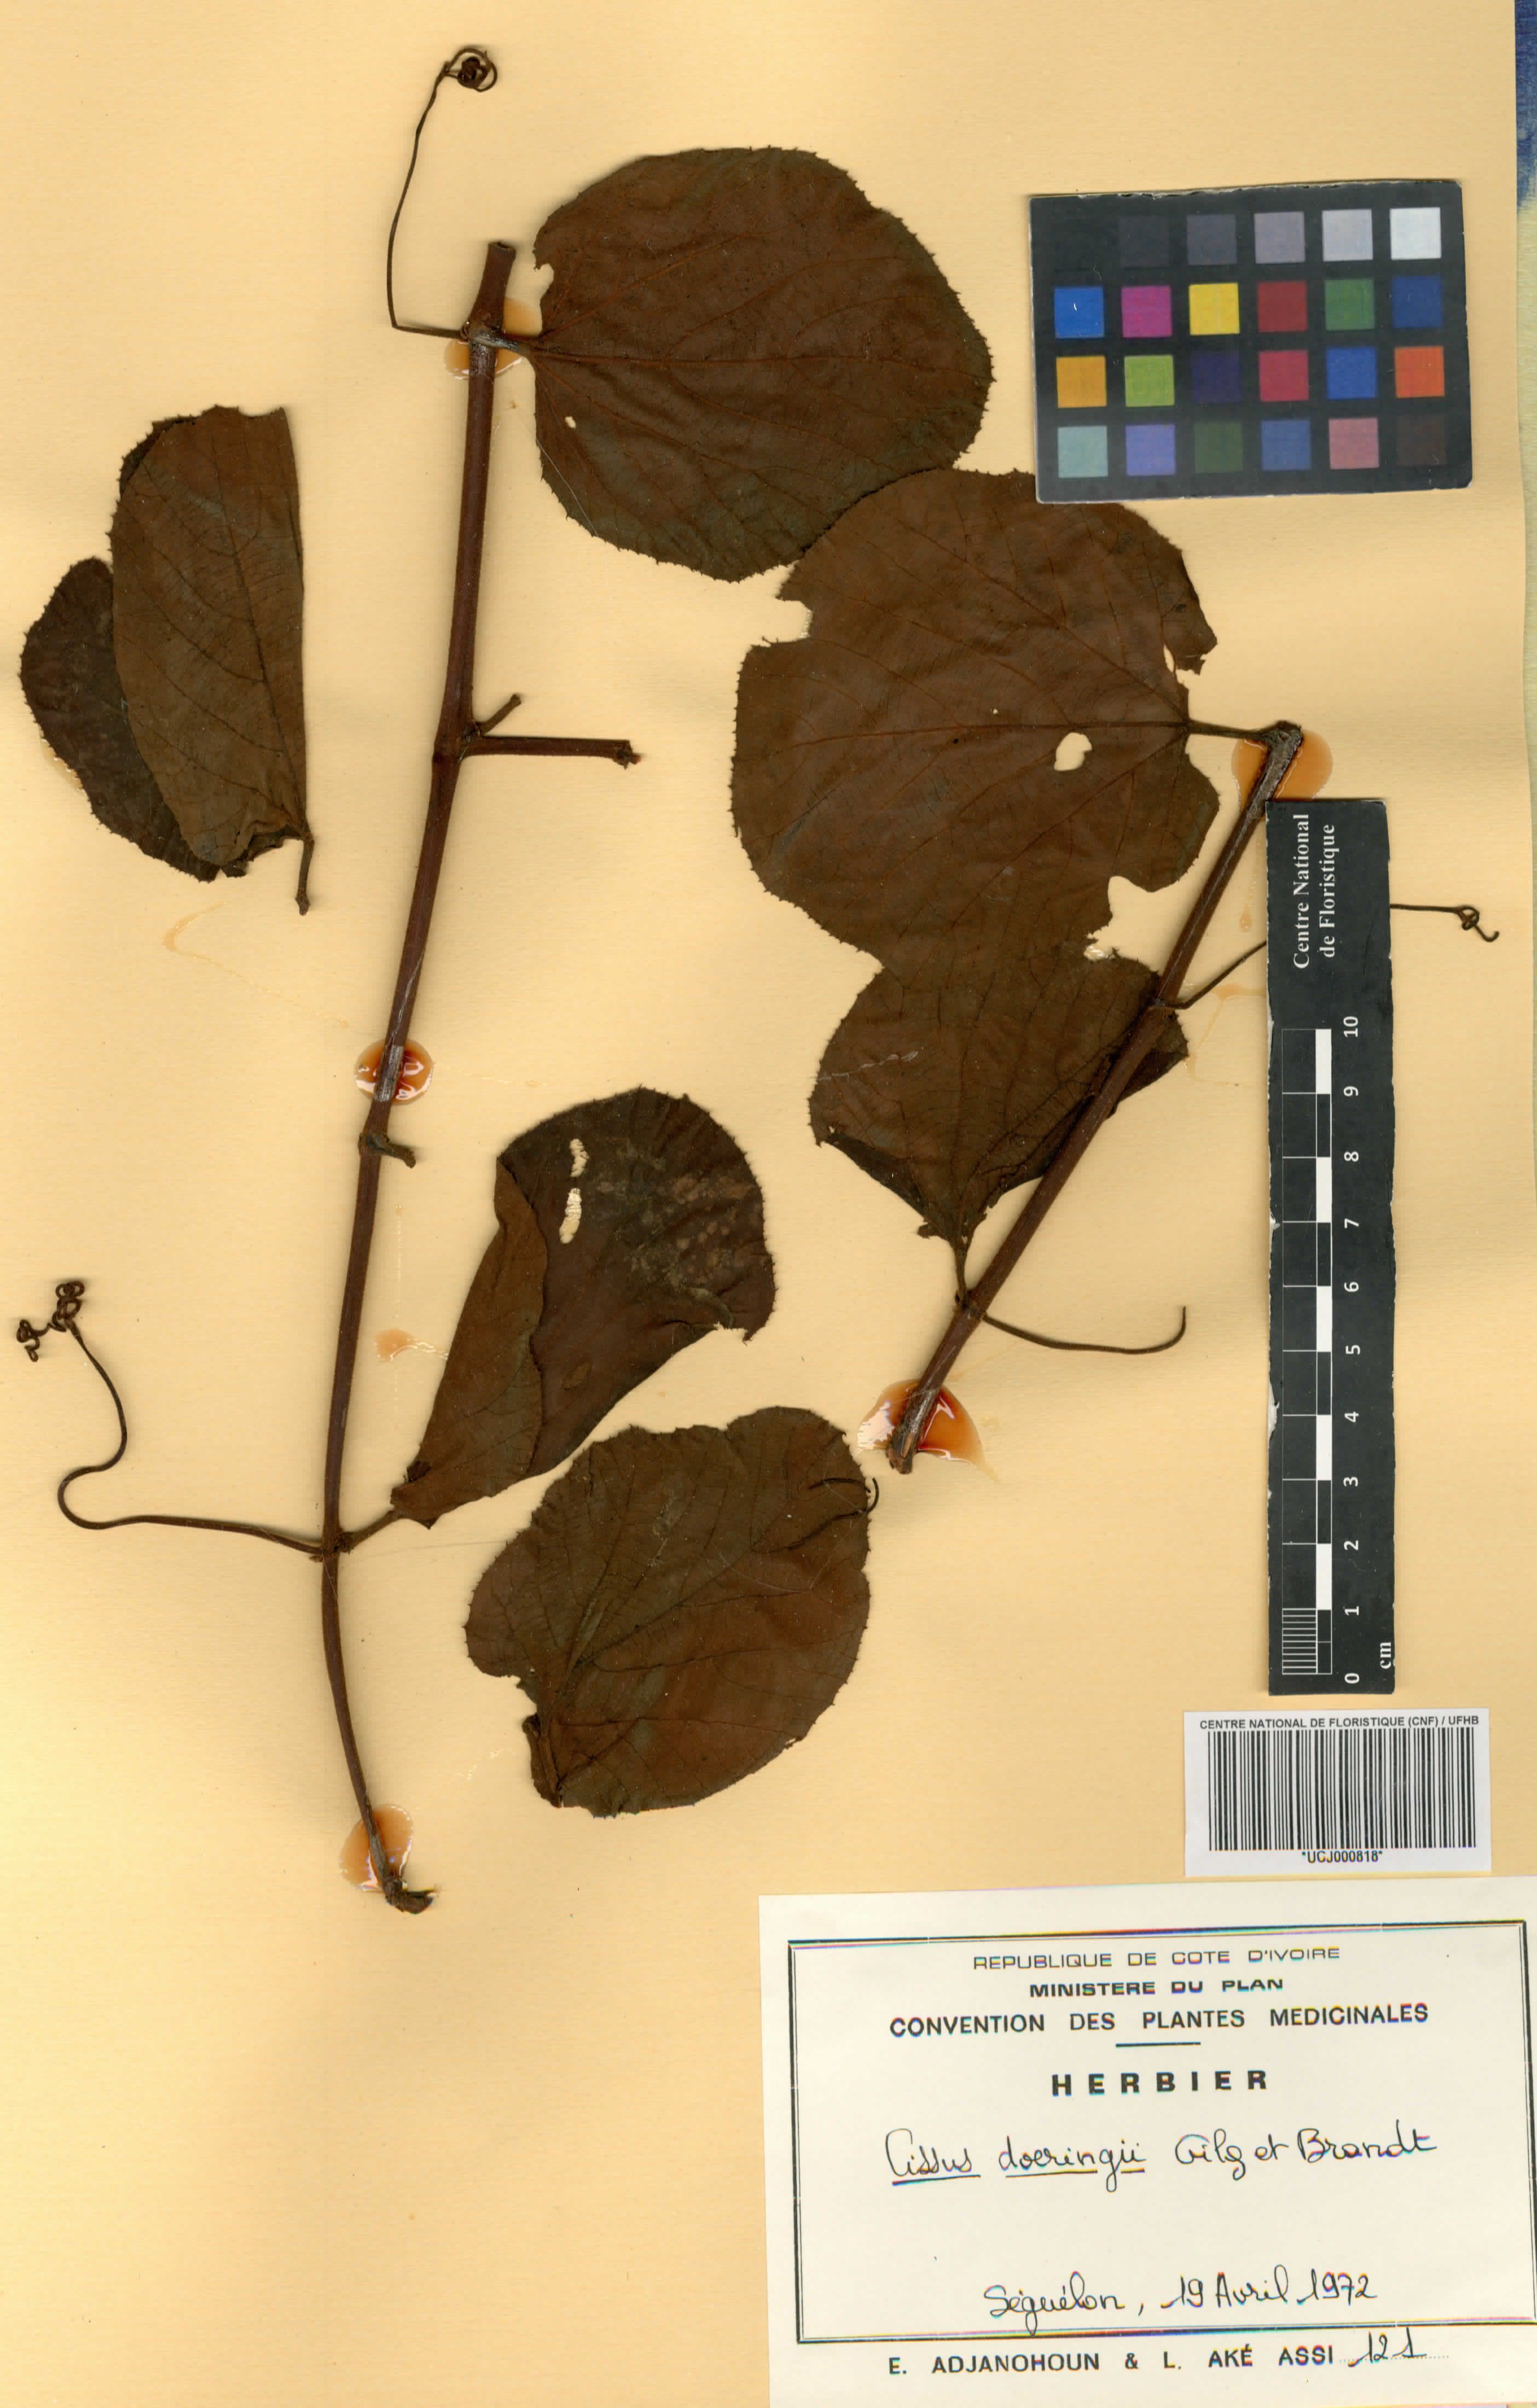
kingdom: Plantae
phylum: Tracheophyta
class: Magnoliopsida
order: Vitales
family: Vitaceae
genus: Cyphostemma
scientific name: Cyphostemma flavicans
